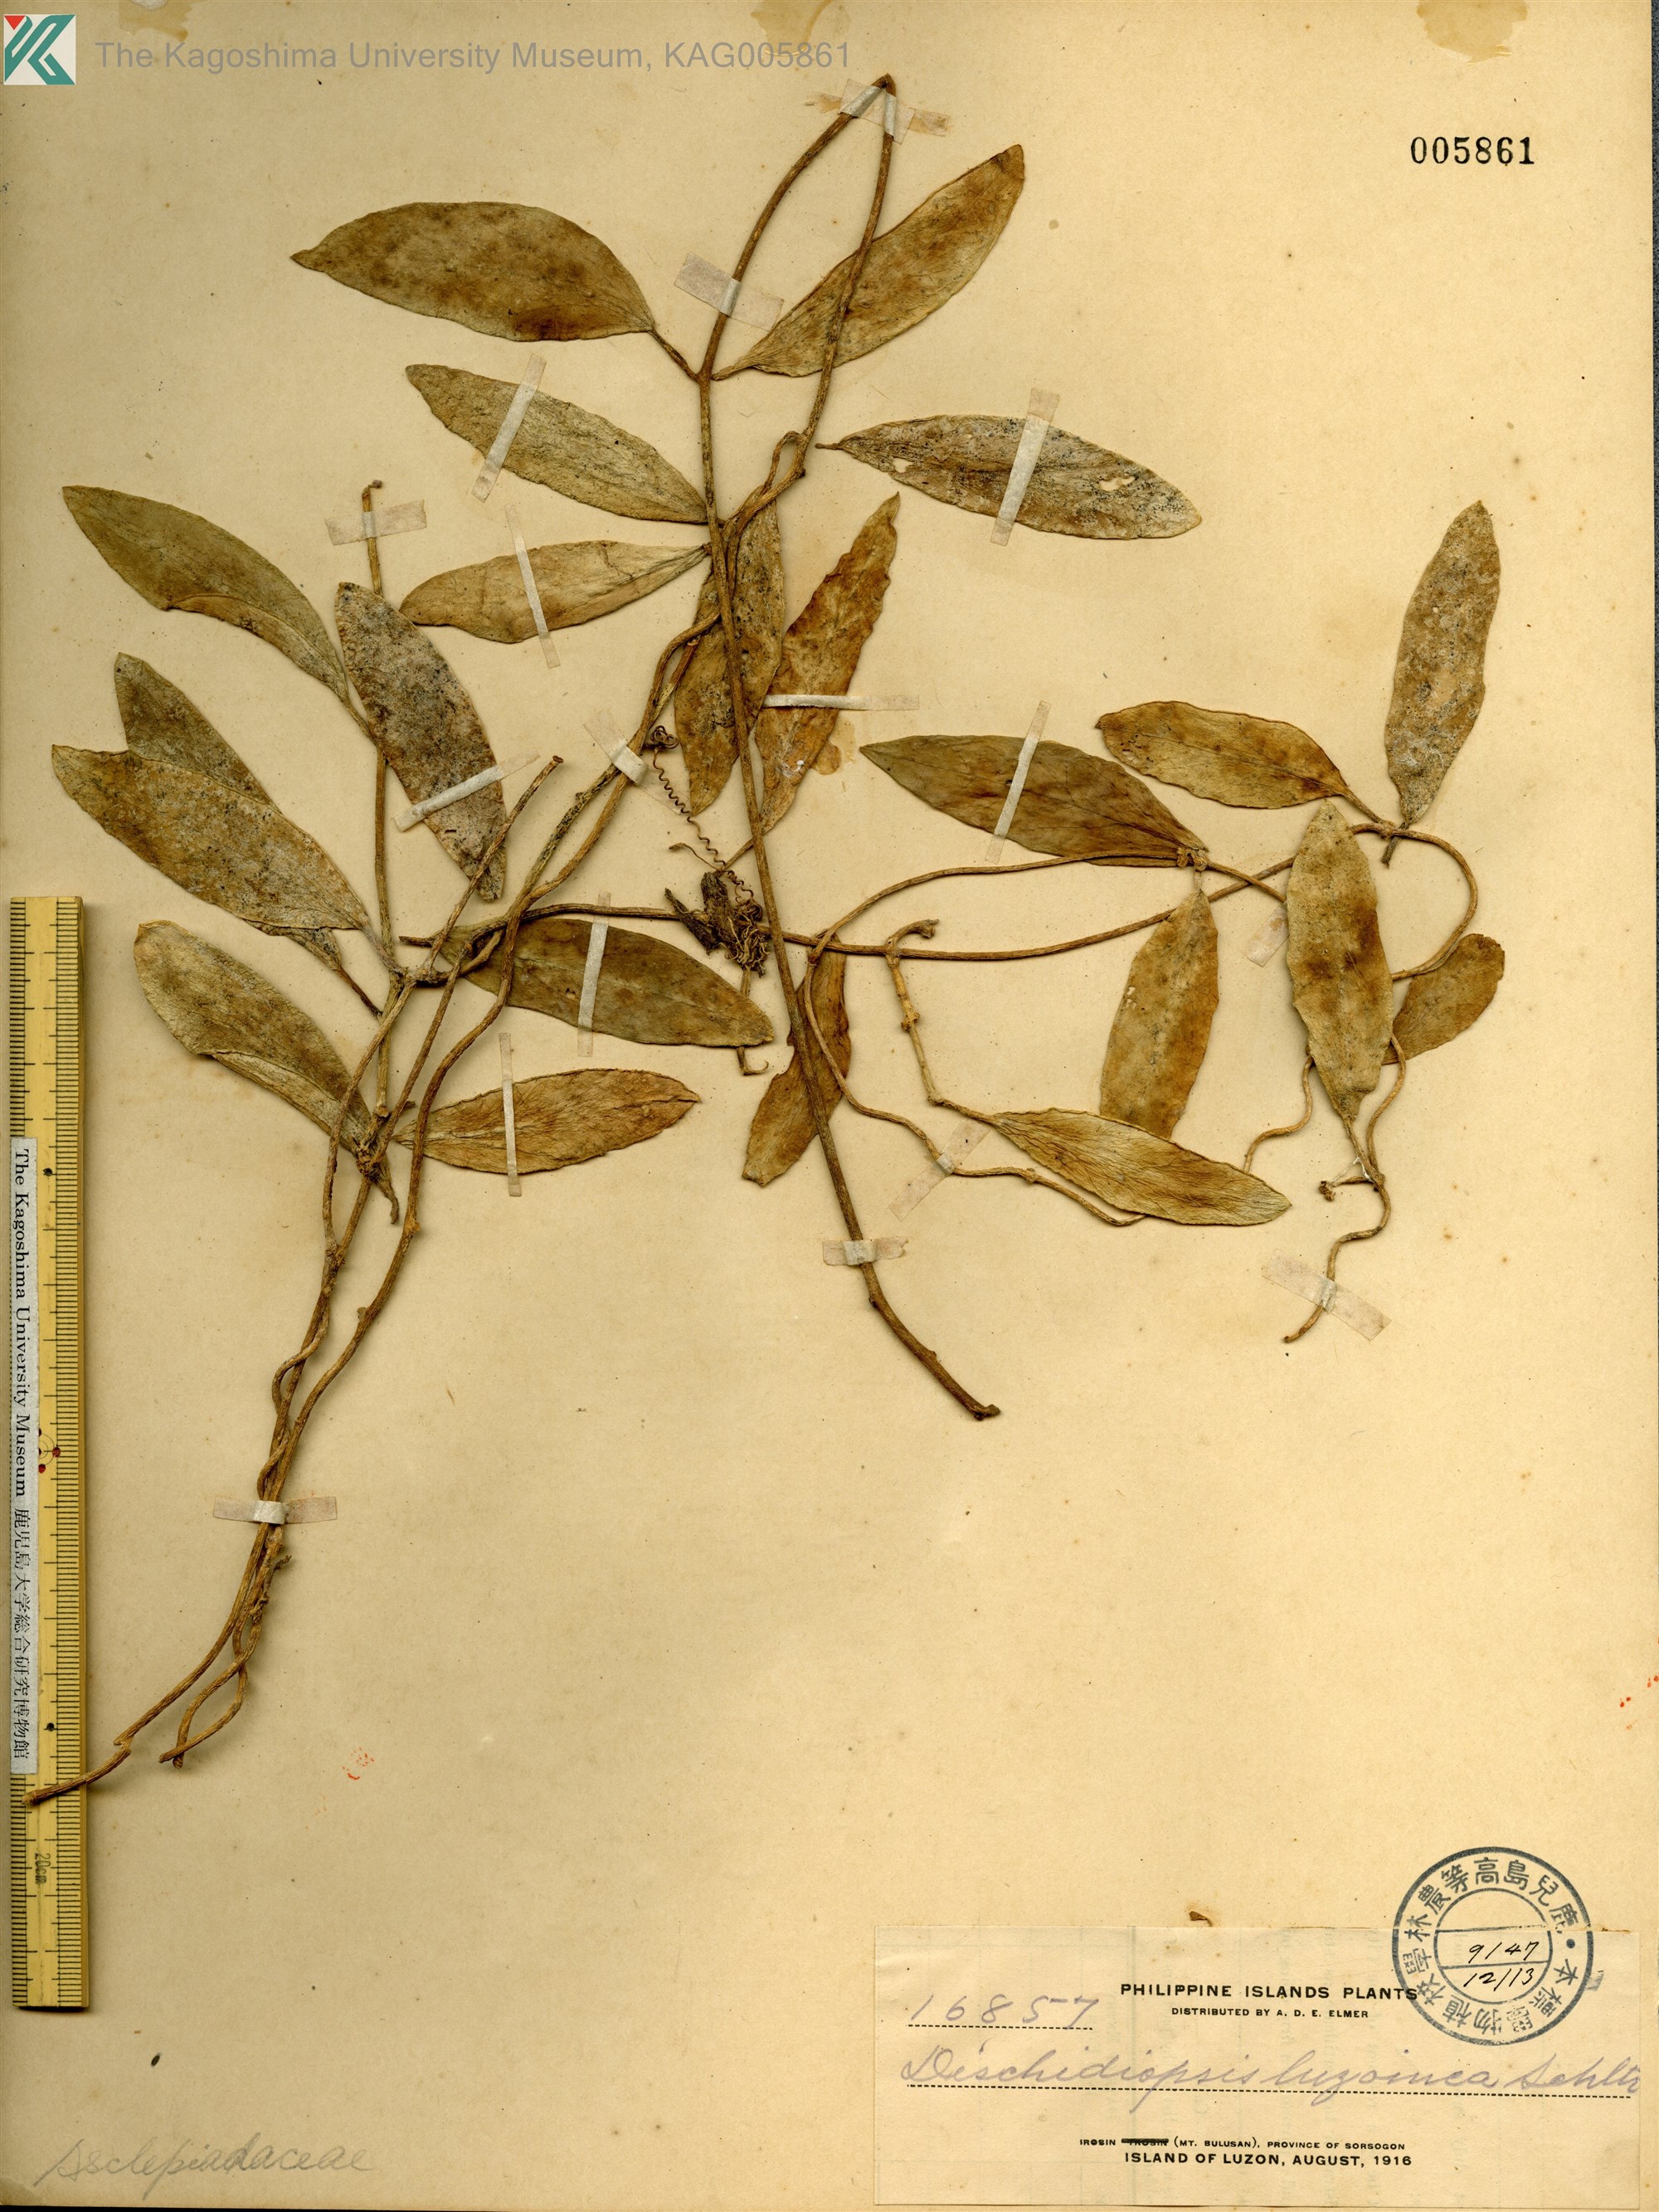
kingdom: Plantae
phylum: Tracheophyta
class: Magnoliopsida
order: Gentianales
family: Apocynaceae
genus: Dischidia
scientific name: Dischidia incrassata
